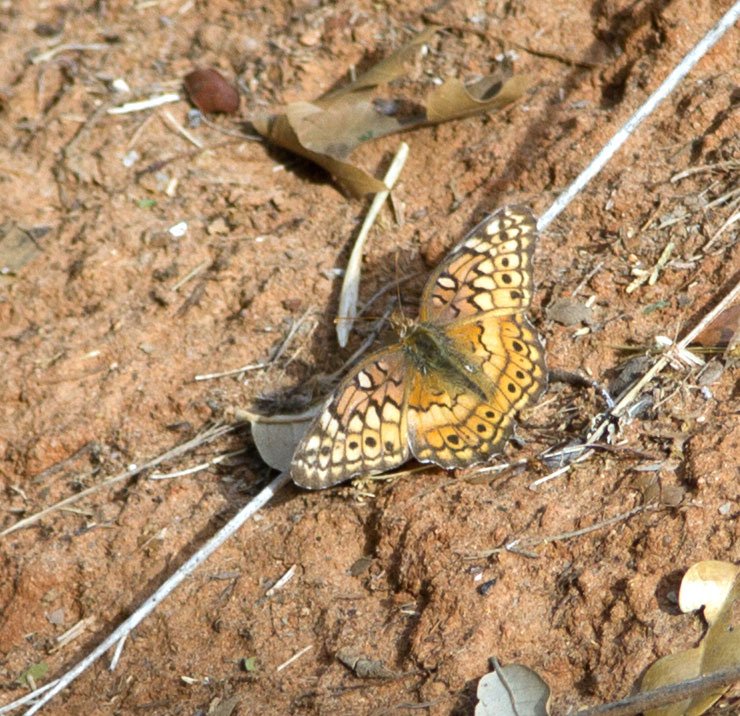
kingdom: Animalia
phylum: Arthropoda
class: Insecta
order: Lepidoptera
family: Nymphalidae
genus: Phyciodes
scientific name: Phyciodes phaon
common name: Phaon Crescent
